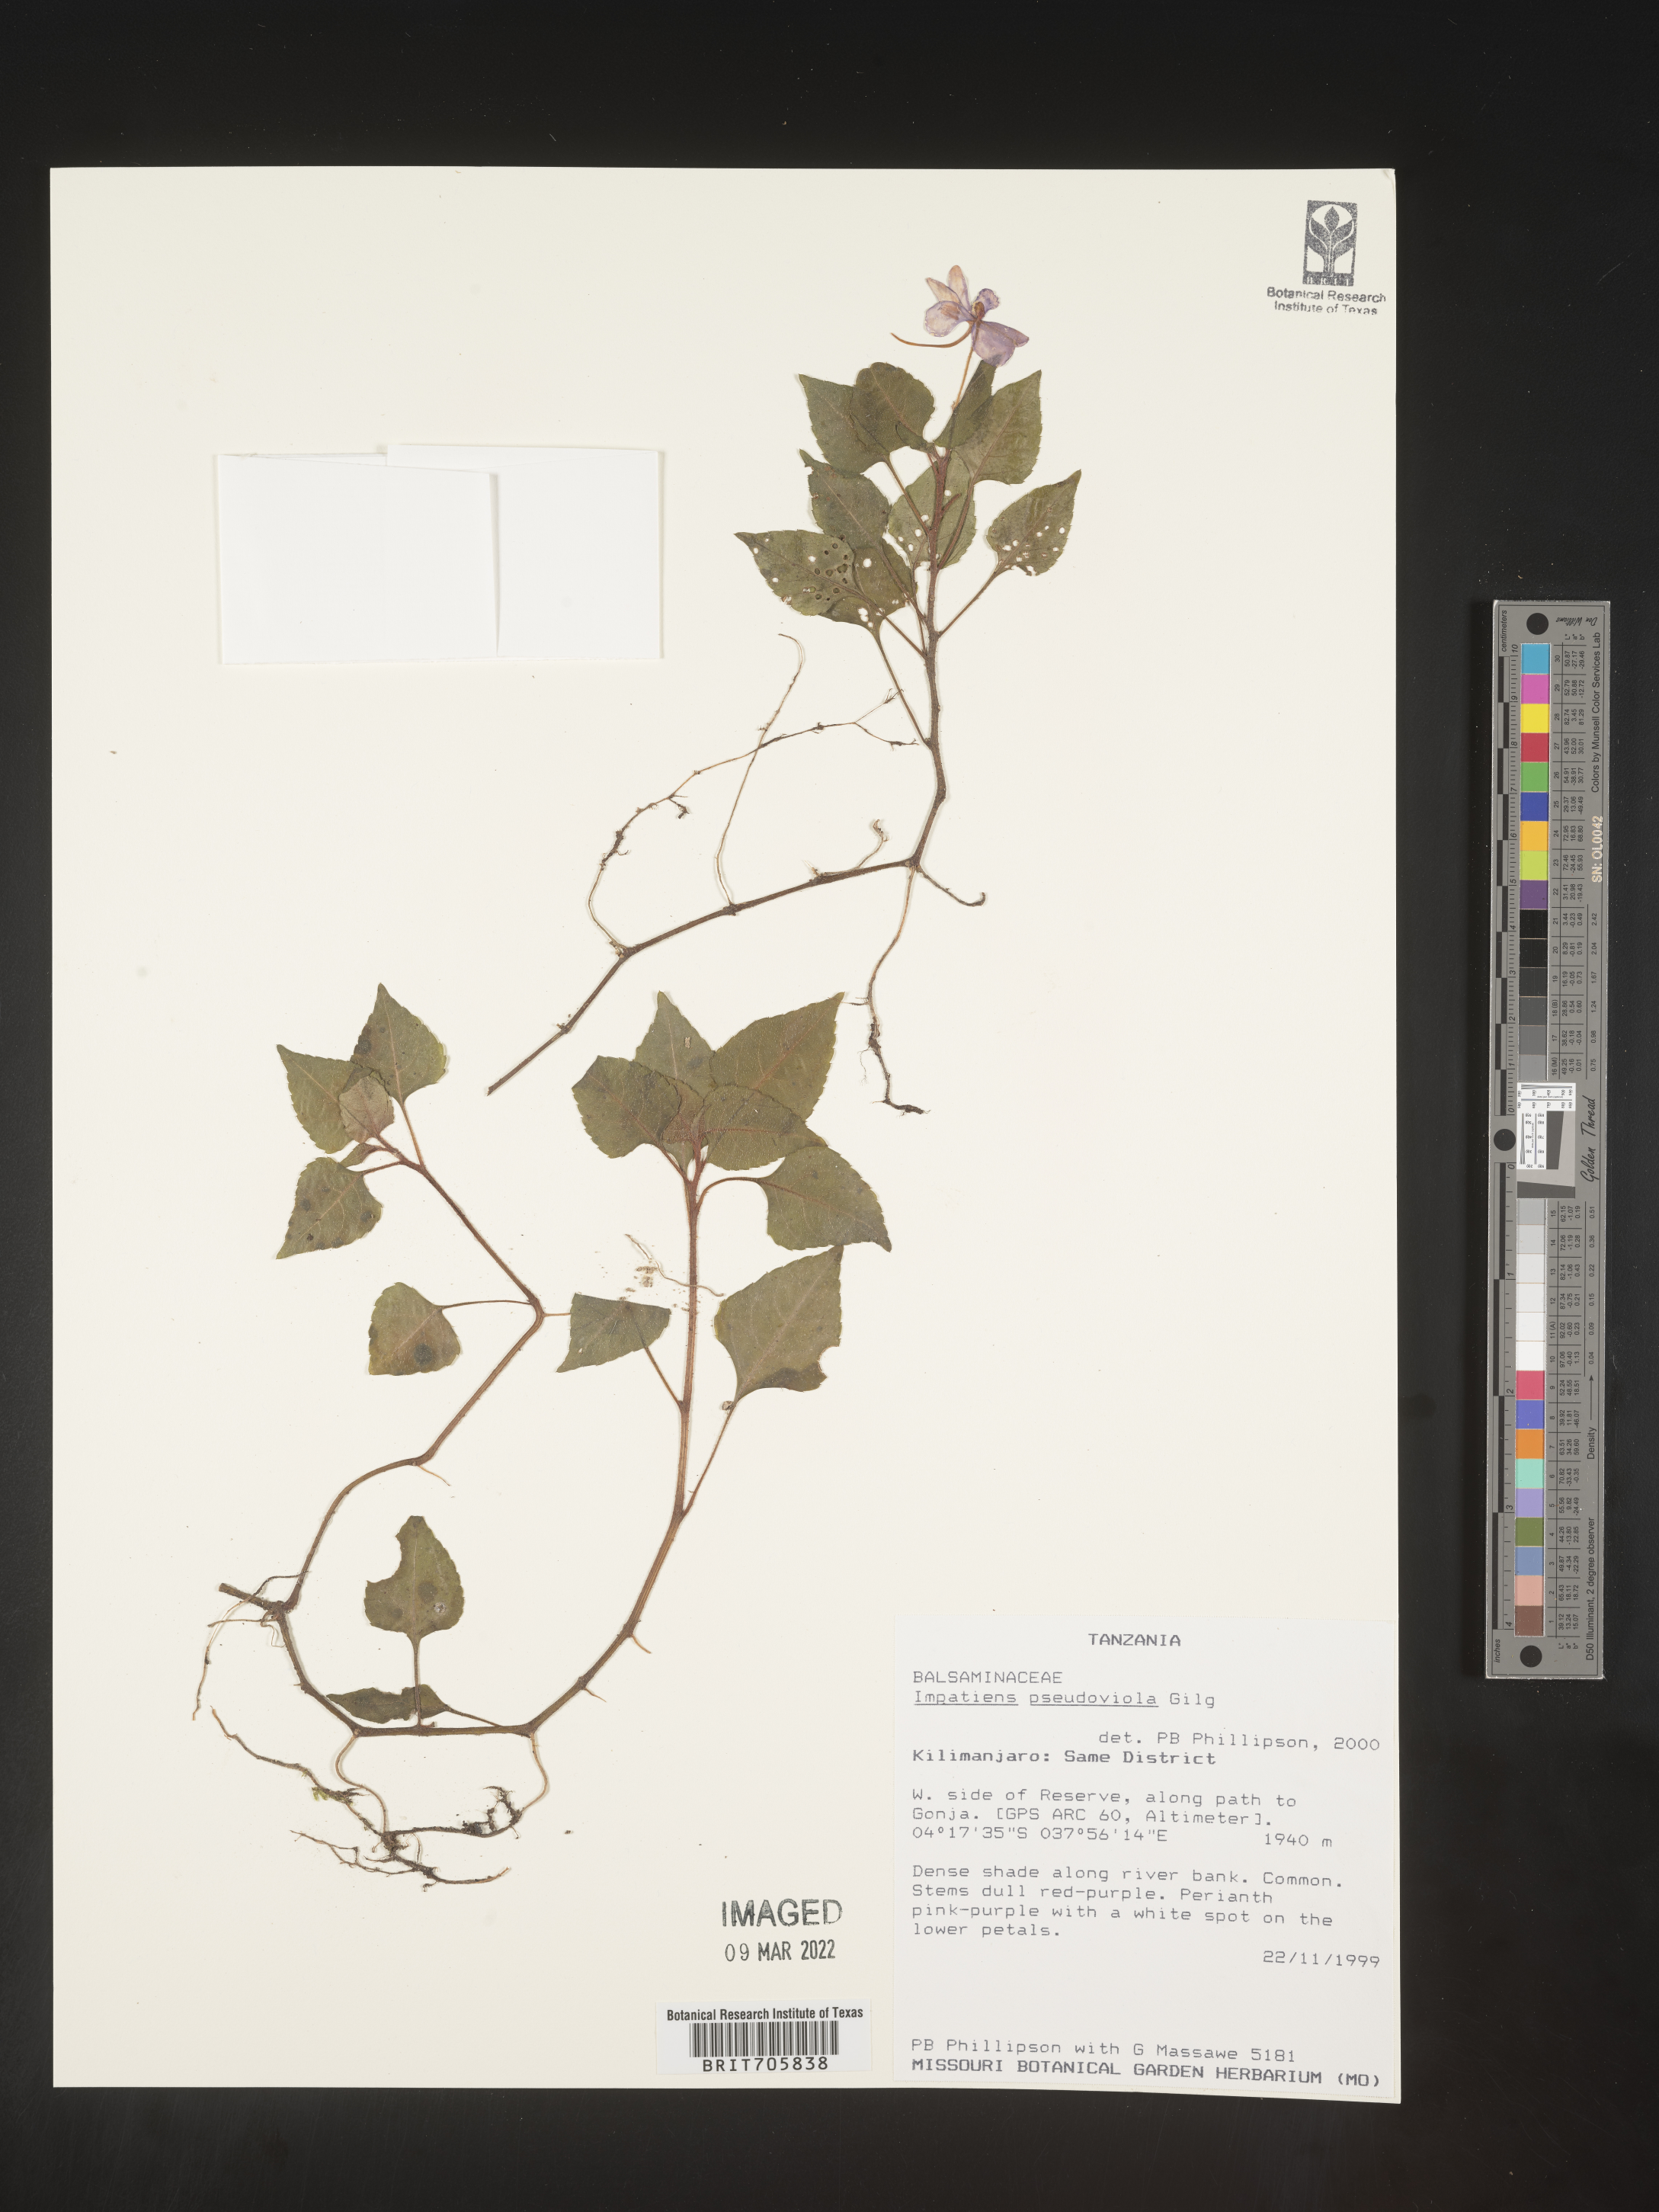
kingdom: Plantae
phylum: Tracheophyta
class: Magnoliopsida
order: Ericales
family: Balsaminaceae
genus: Impatiens
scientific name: Impatiens
